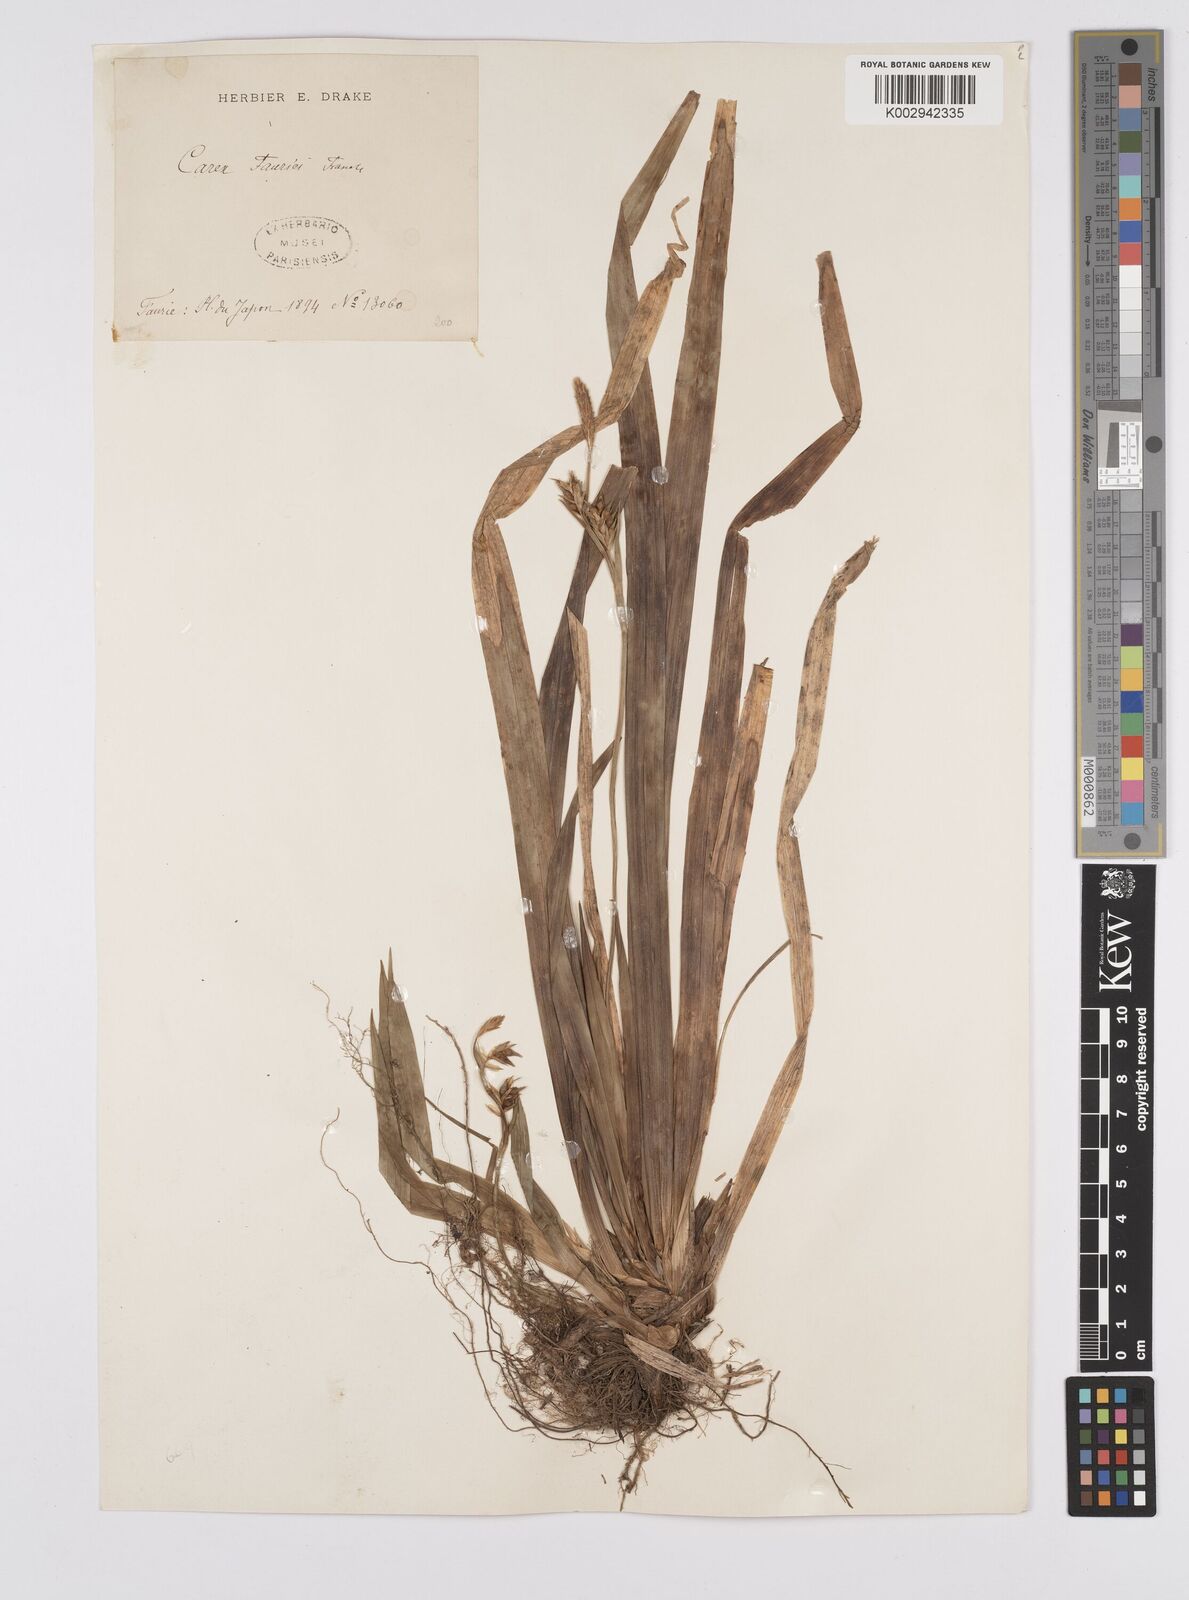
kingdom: Plantae
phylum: Tracheophyta
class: Liliopsida
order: Poales
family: Cyperaceae
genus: Carex
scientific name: Carex phacota
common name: Lakeshore sedge
